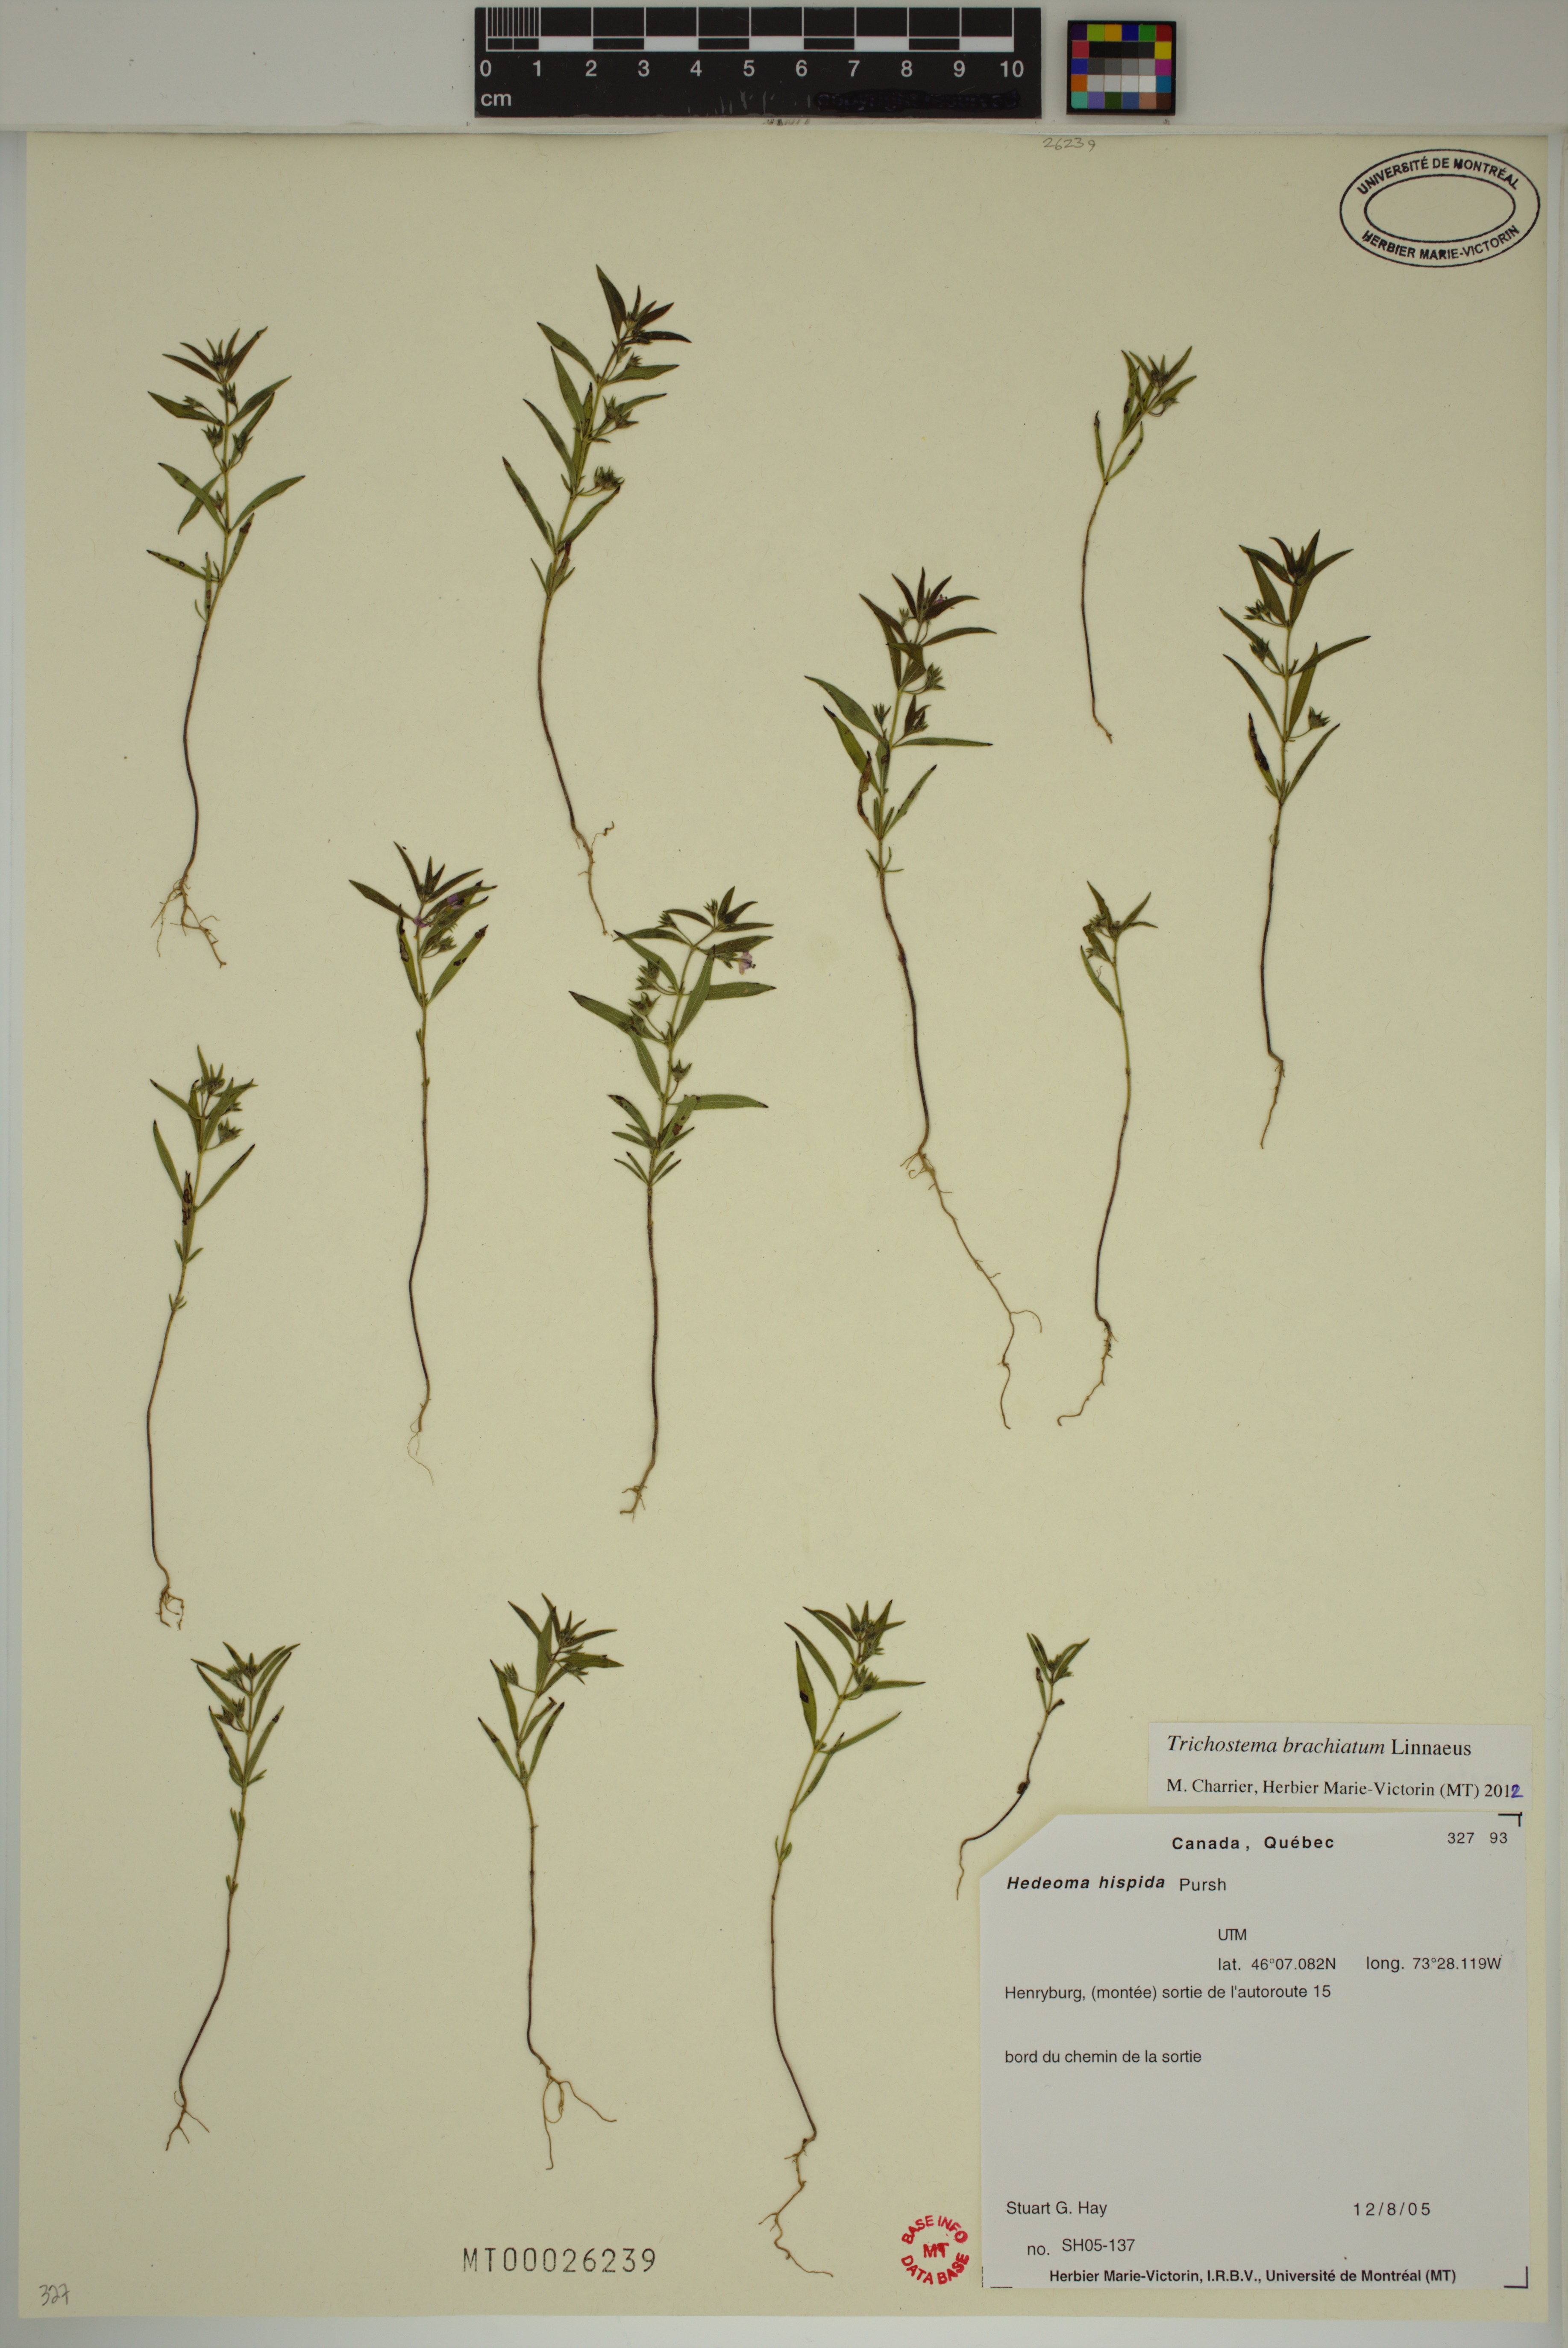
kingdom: Plantae
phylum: Tracheophyta
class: Magnoliopsida
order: Lamiales
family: Lamiaceae
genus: Trichostema
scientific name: Trichostema brachiatum
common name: False pennyroyal
